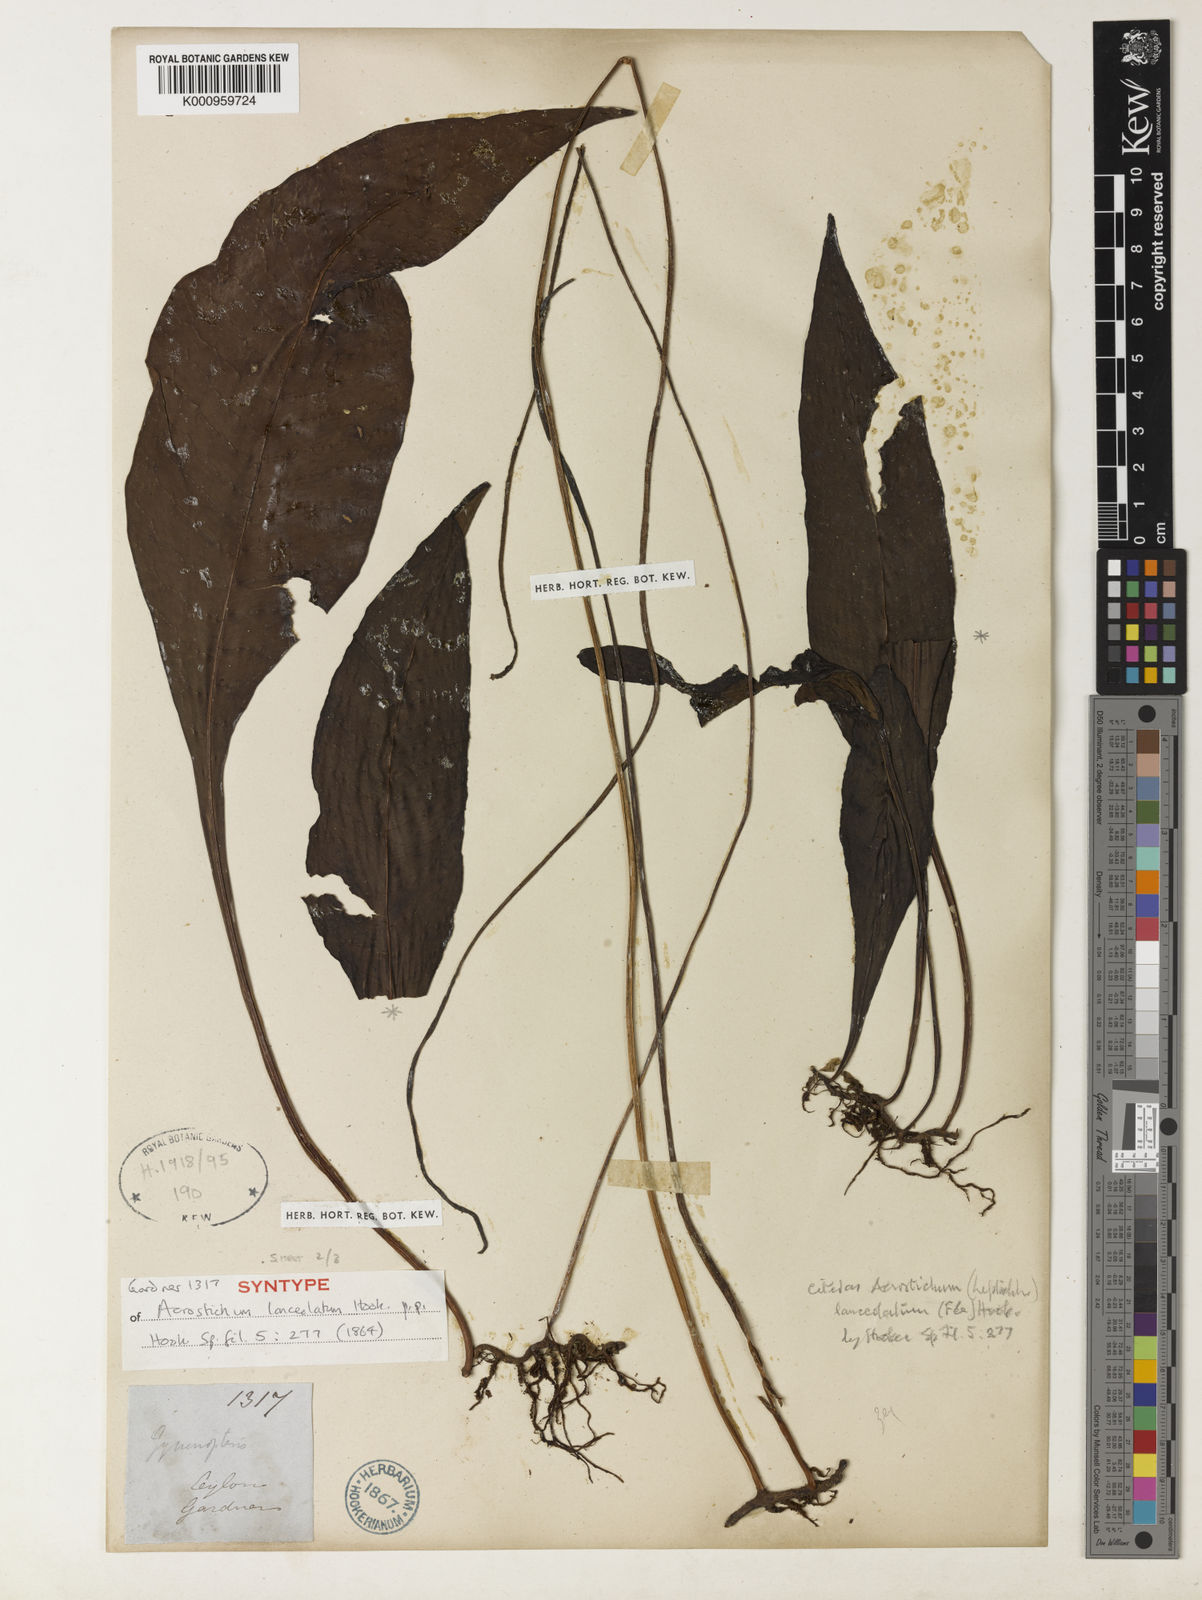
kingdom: Plantae
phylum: Tracheophyta
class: Polypodiopsida
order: Polypodiales
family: Polypodiaceae
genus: Leptochilus
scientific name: Leptochilus decurrens
